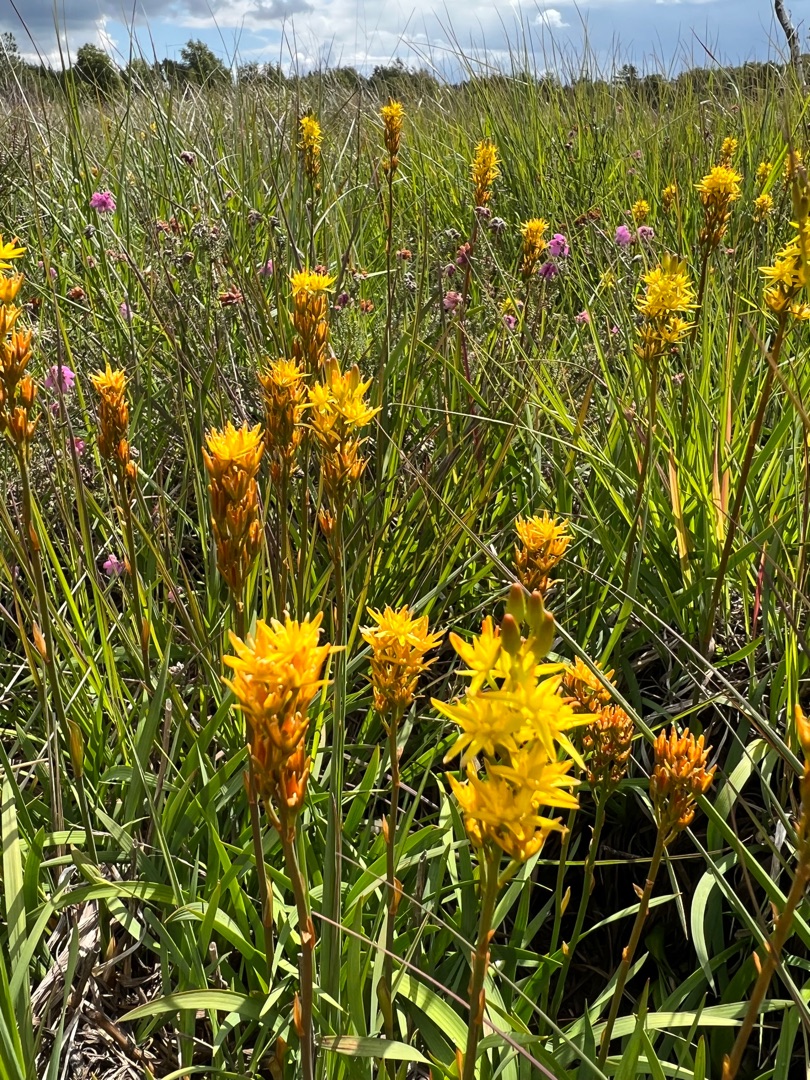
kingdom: Plantae
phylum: Tracheophyta
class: Liliopsida
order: Dioscoreales
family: Nartheciaceae
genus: Narthecium
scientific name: Narthecium ossifragum
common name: Benbræk
